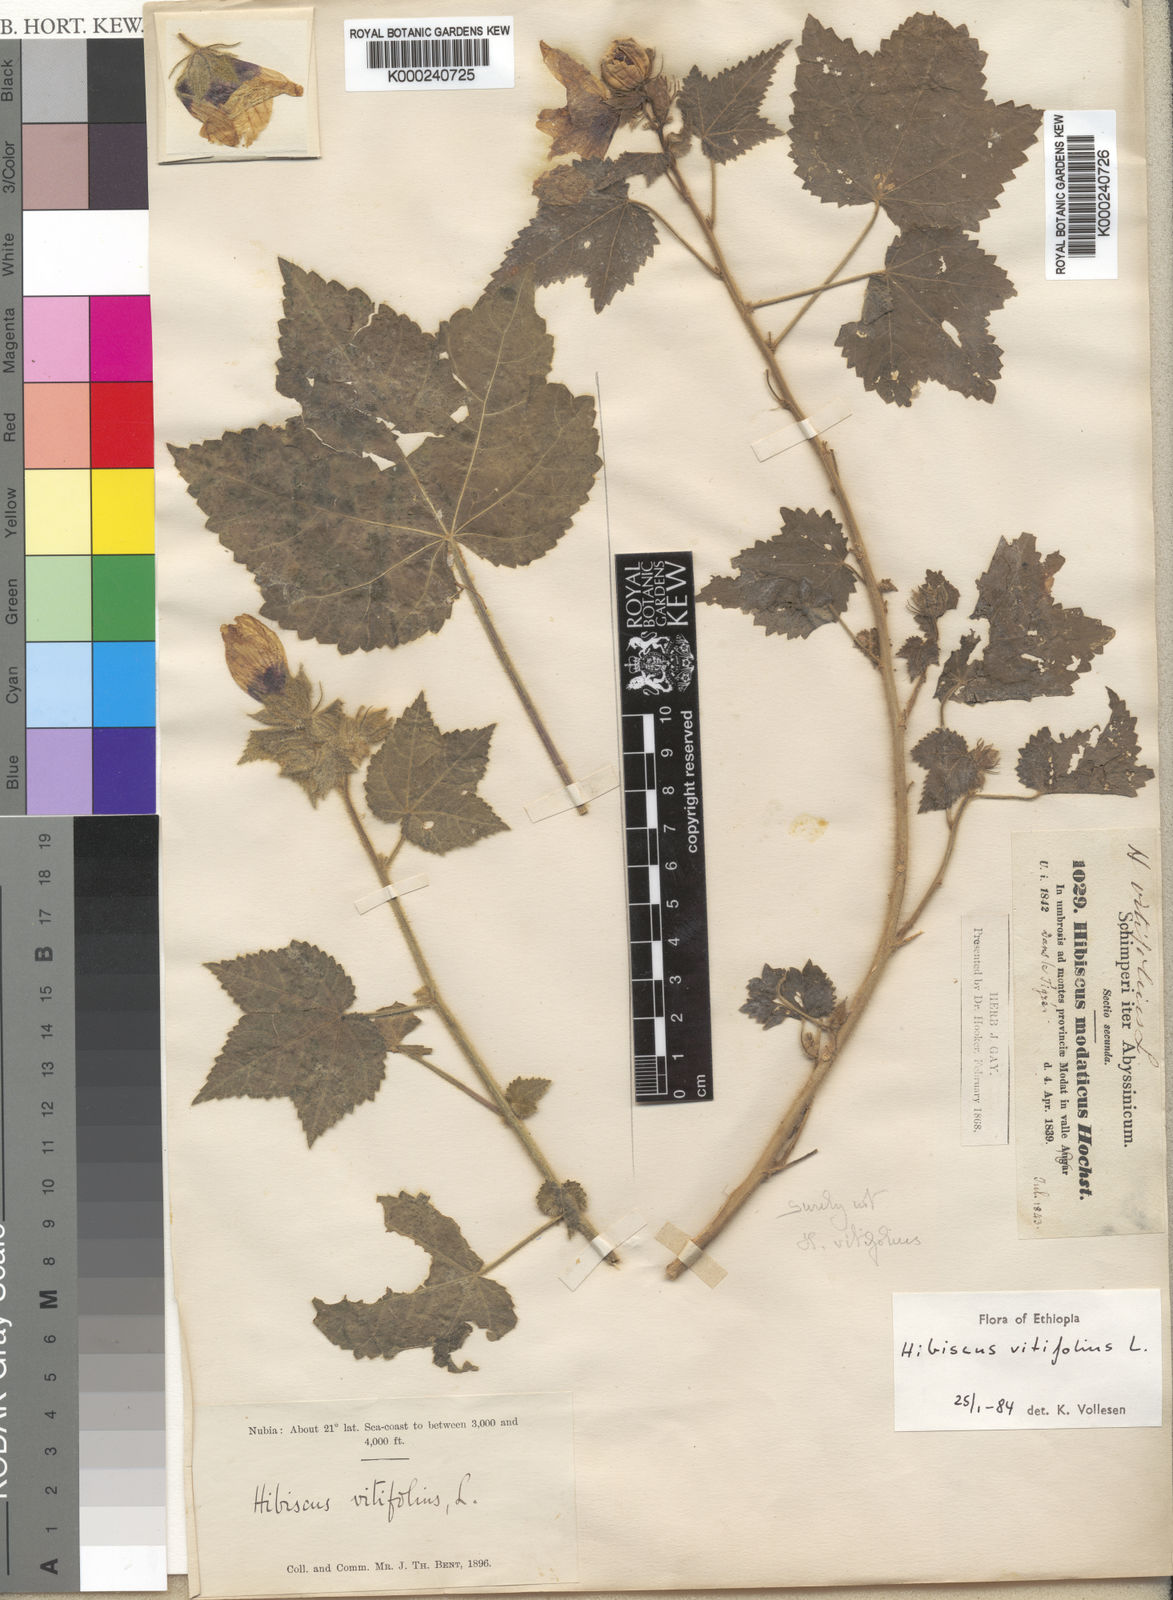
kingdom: Plantae
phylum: Tracheophyta
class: Magnoliopsida
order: Malvales
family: Malvaceae
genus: Hibiscus
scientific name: Hibiscus vitifolius
